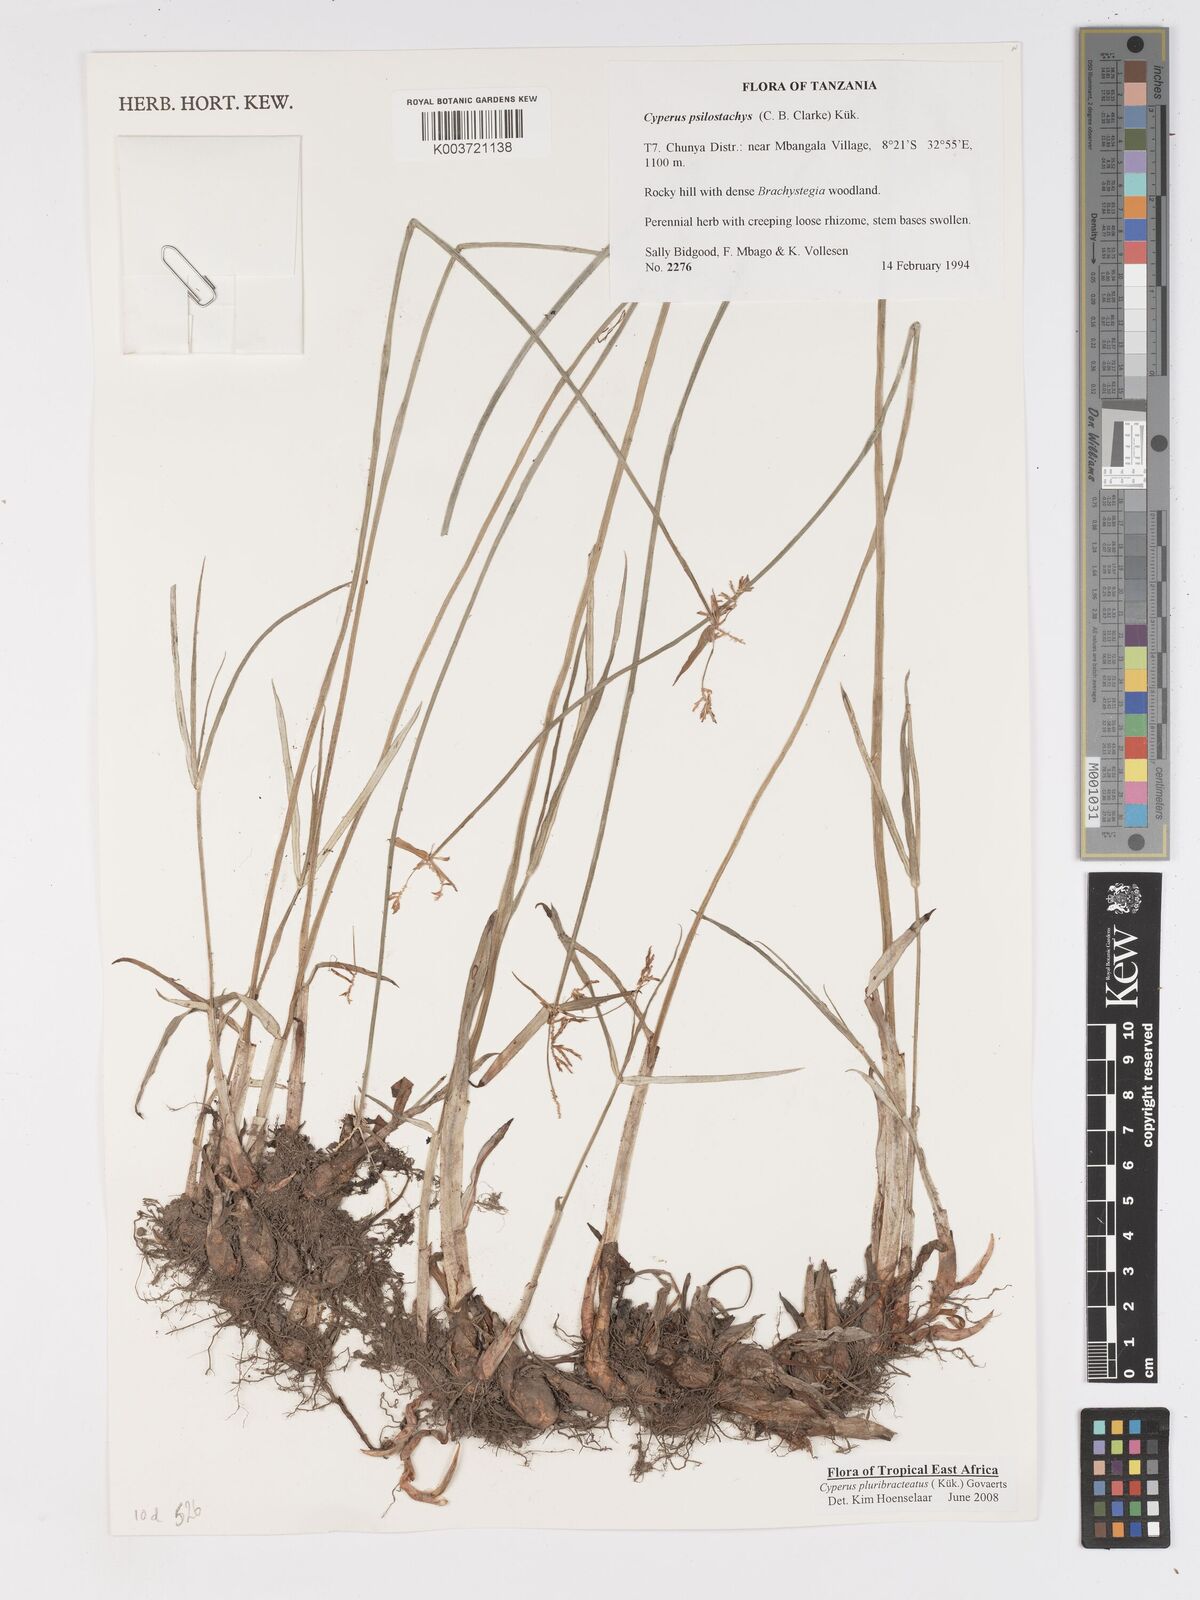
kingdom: Plantae
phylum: Tracheophyta
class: Liliopsida
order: Poales
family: Cyperaceae
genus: Cyperus
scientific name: Cyperus trigonellus
